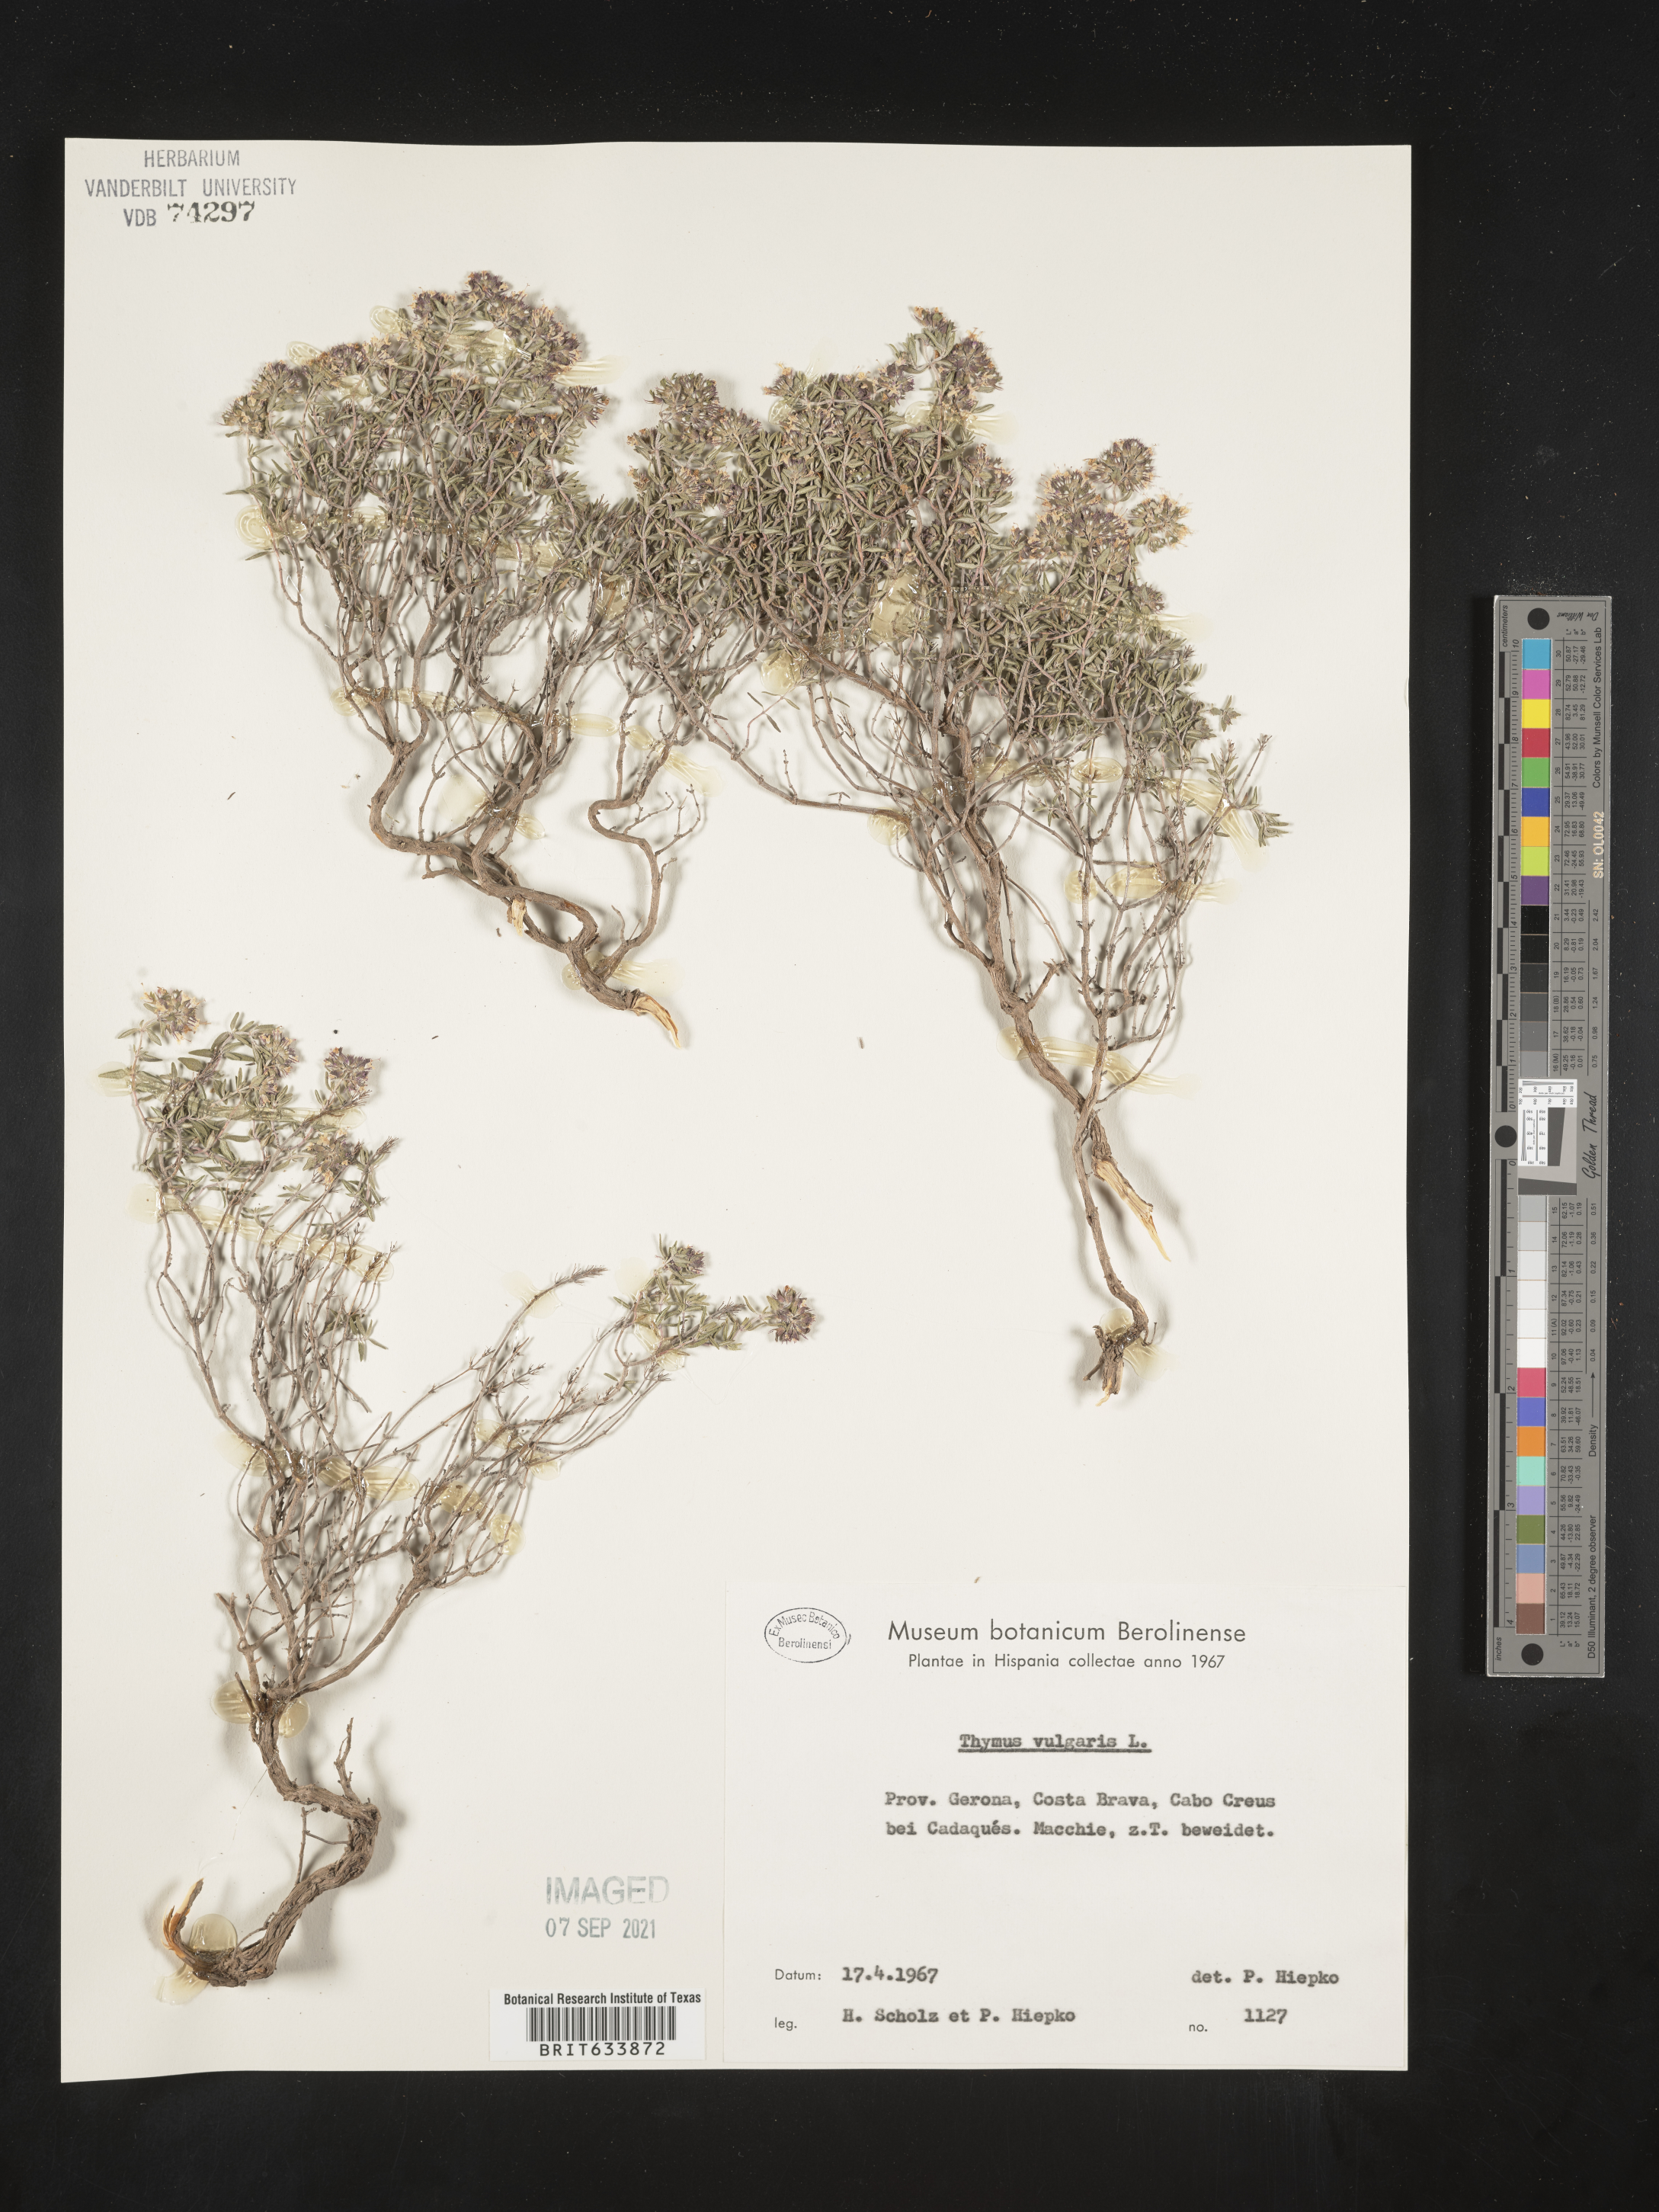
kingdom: Plantae
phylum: Tracheophyta
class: Magnoliopsida
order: Lamiales
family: Lamiaceae
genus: Thymus
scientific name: Thymus
